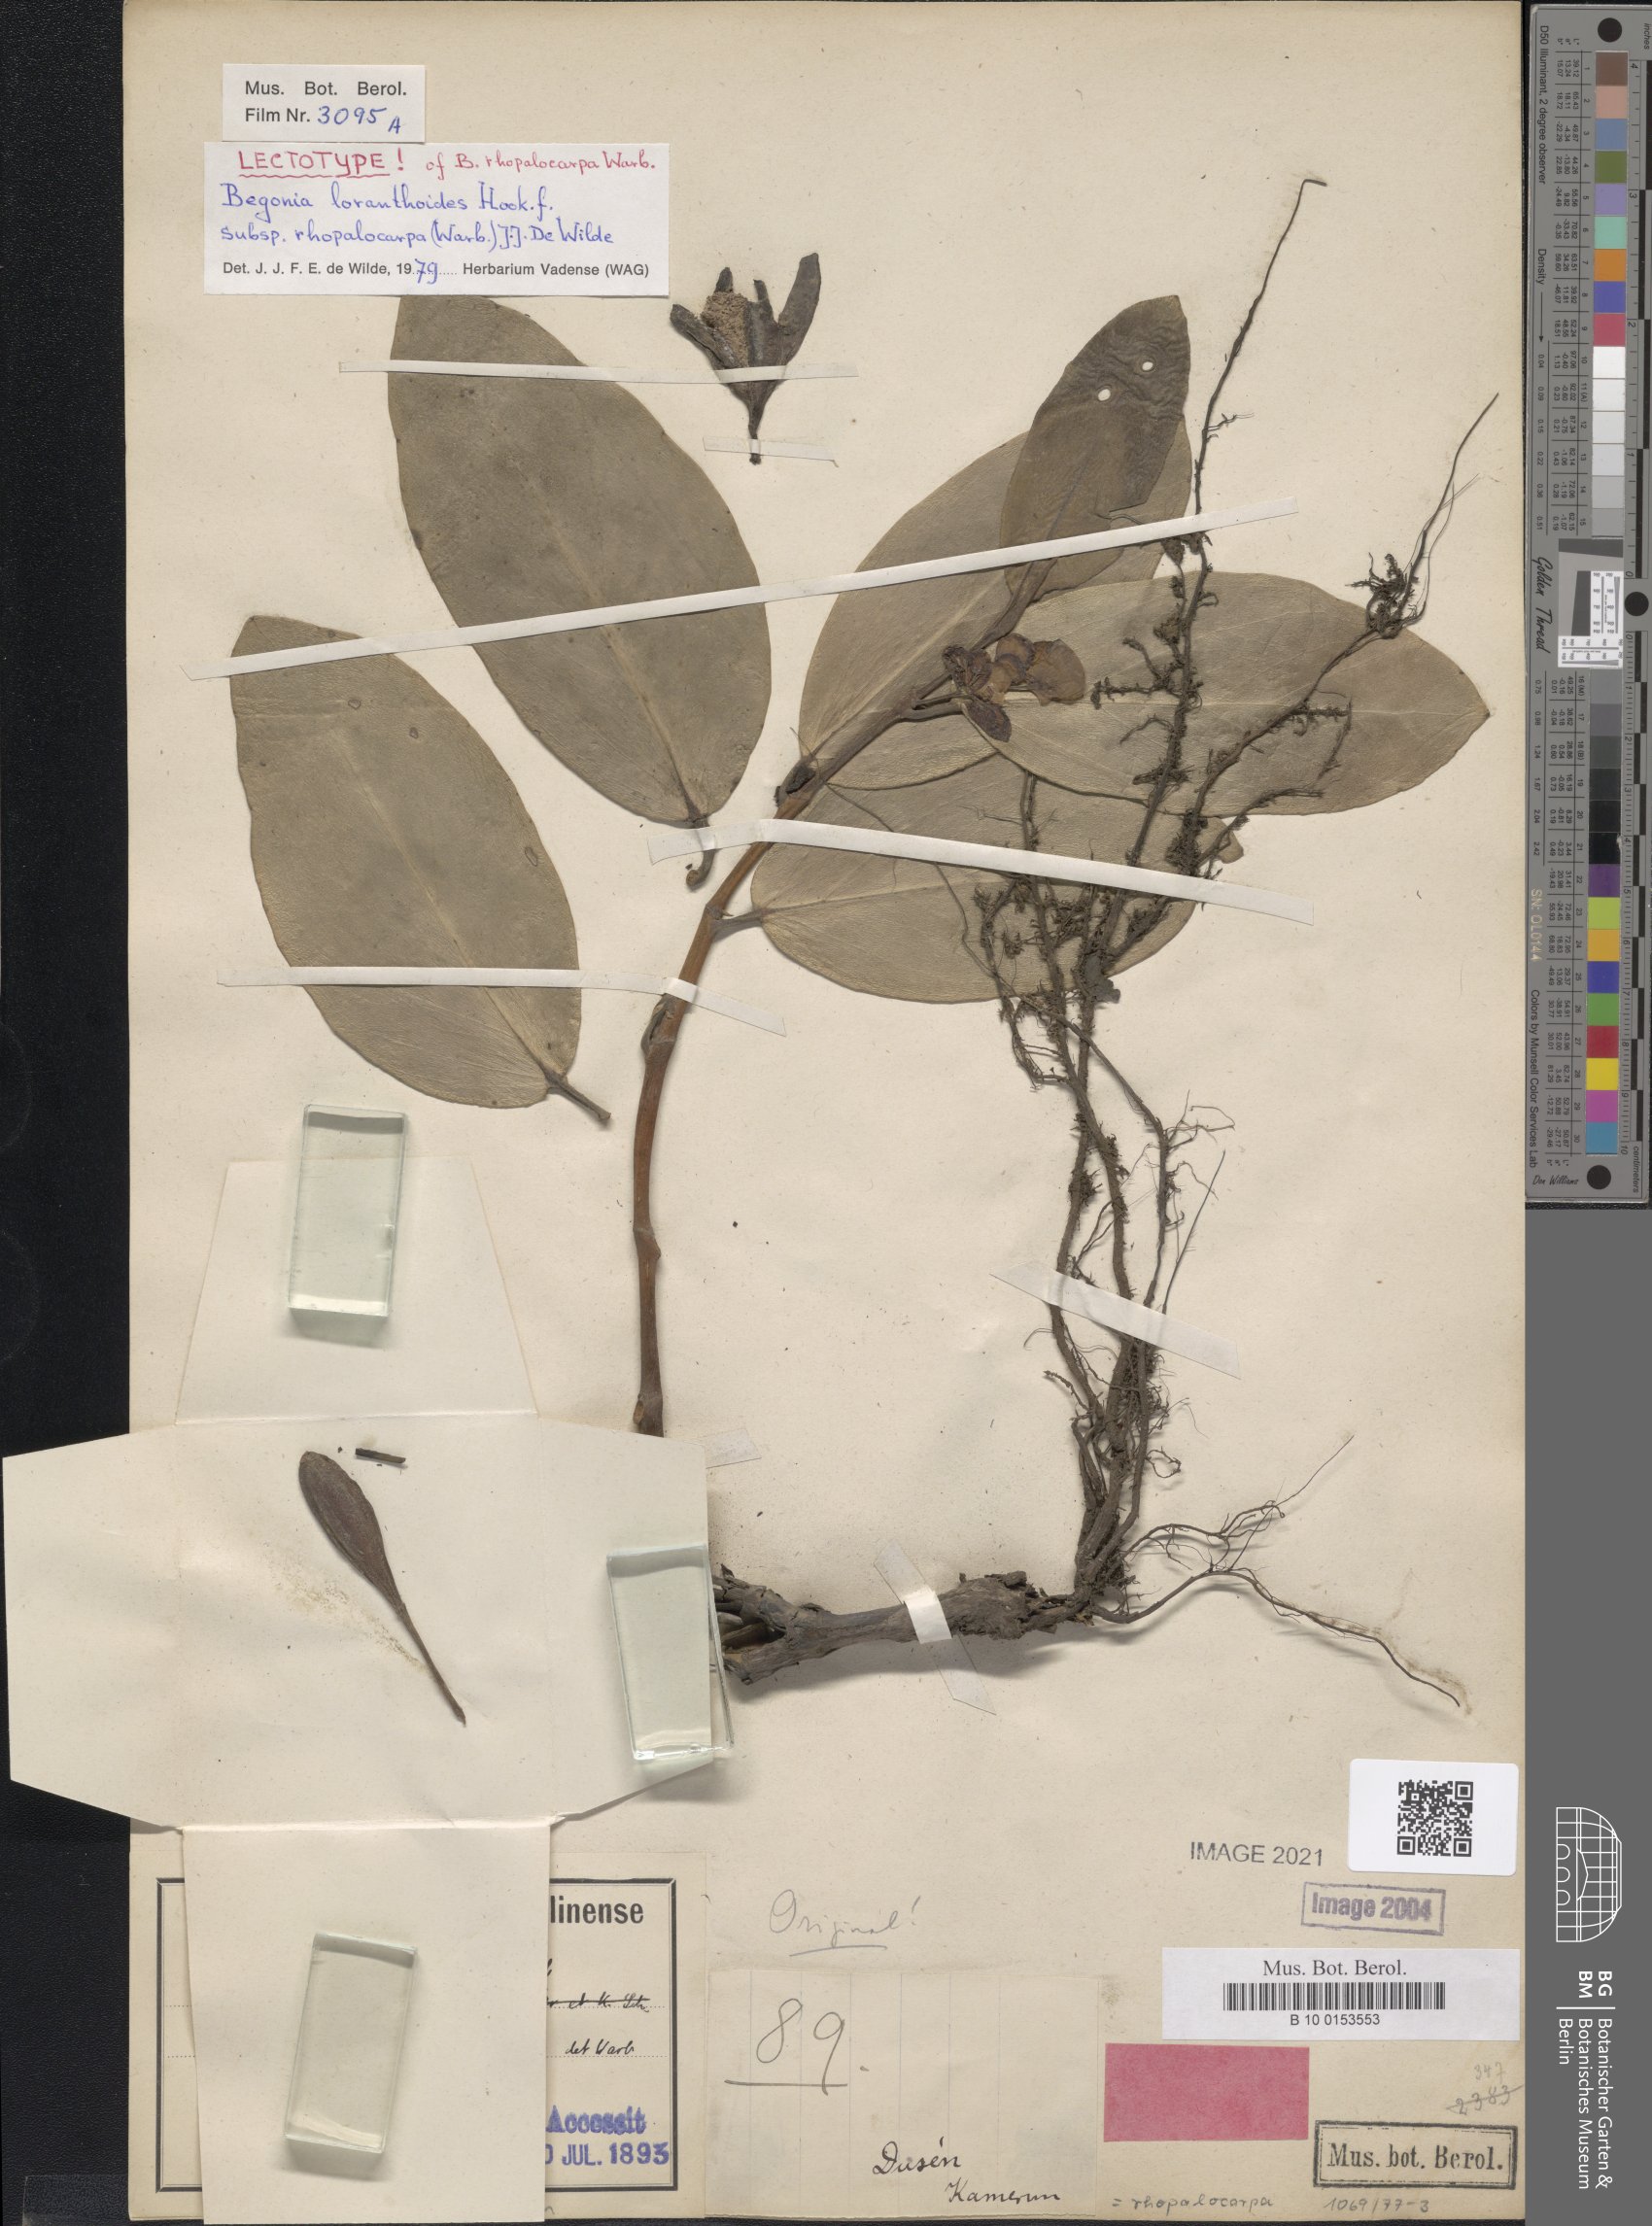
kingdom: Plantae
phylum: Tracheophyta
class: Magnoliopsida
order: Cucurbitales
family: Begoniaceae
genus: Begonia
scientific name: Begonia loranthoides
